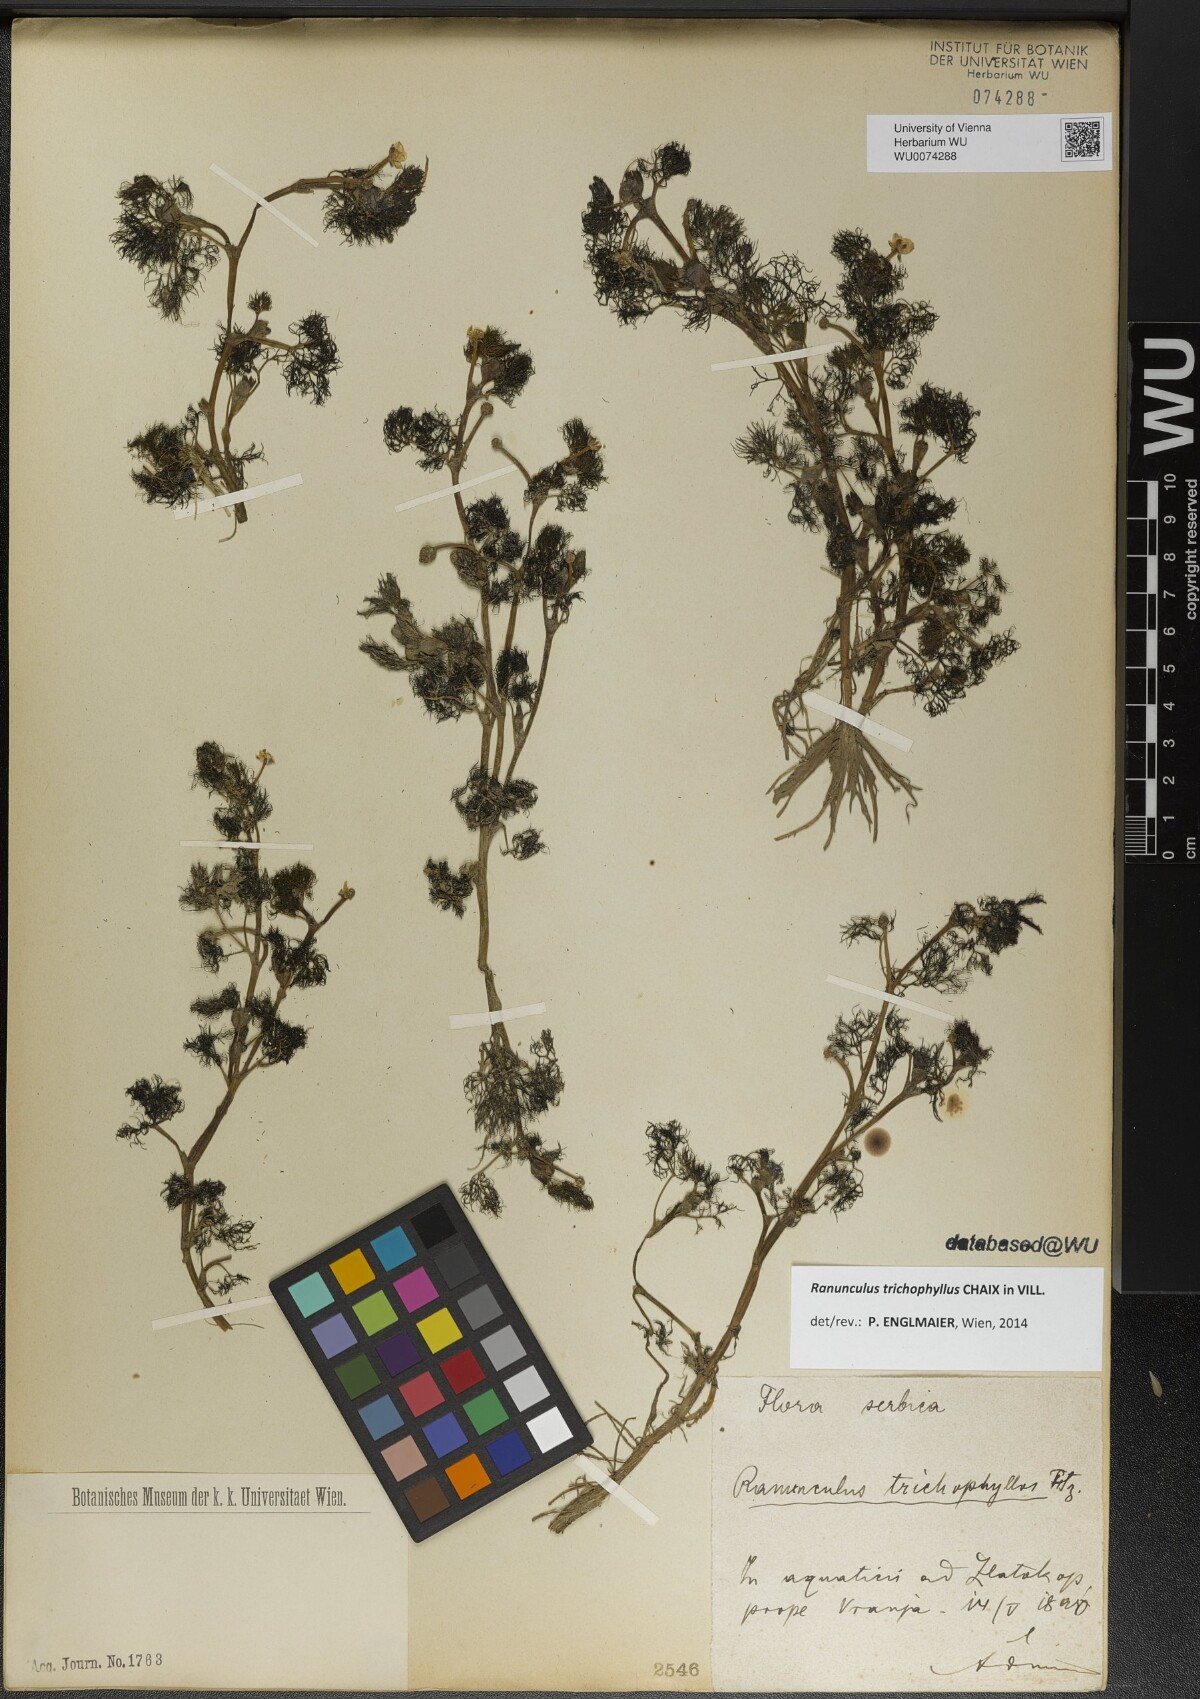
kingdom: Plantae
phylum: Tracheophyta
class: Magnoliopsida
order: Ranunculales
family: Ranunculaceae
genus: Ranunculus
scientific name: Ranunculus trichophyllus
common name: Thread-leaved water-crowfoot
